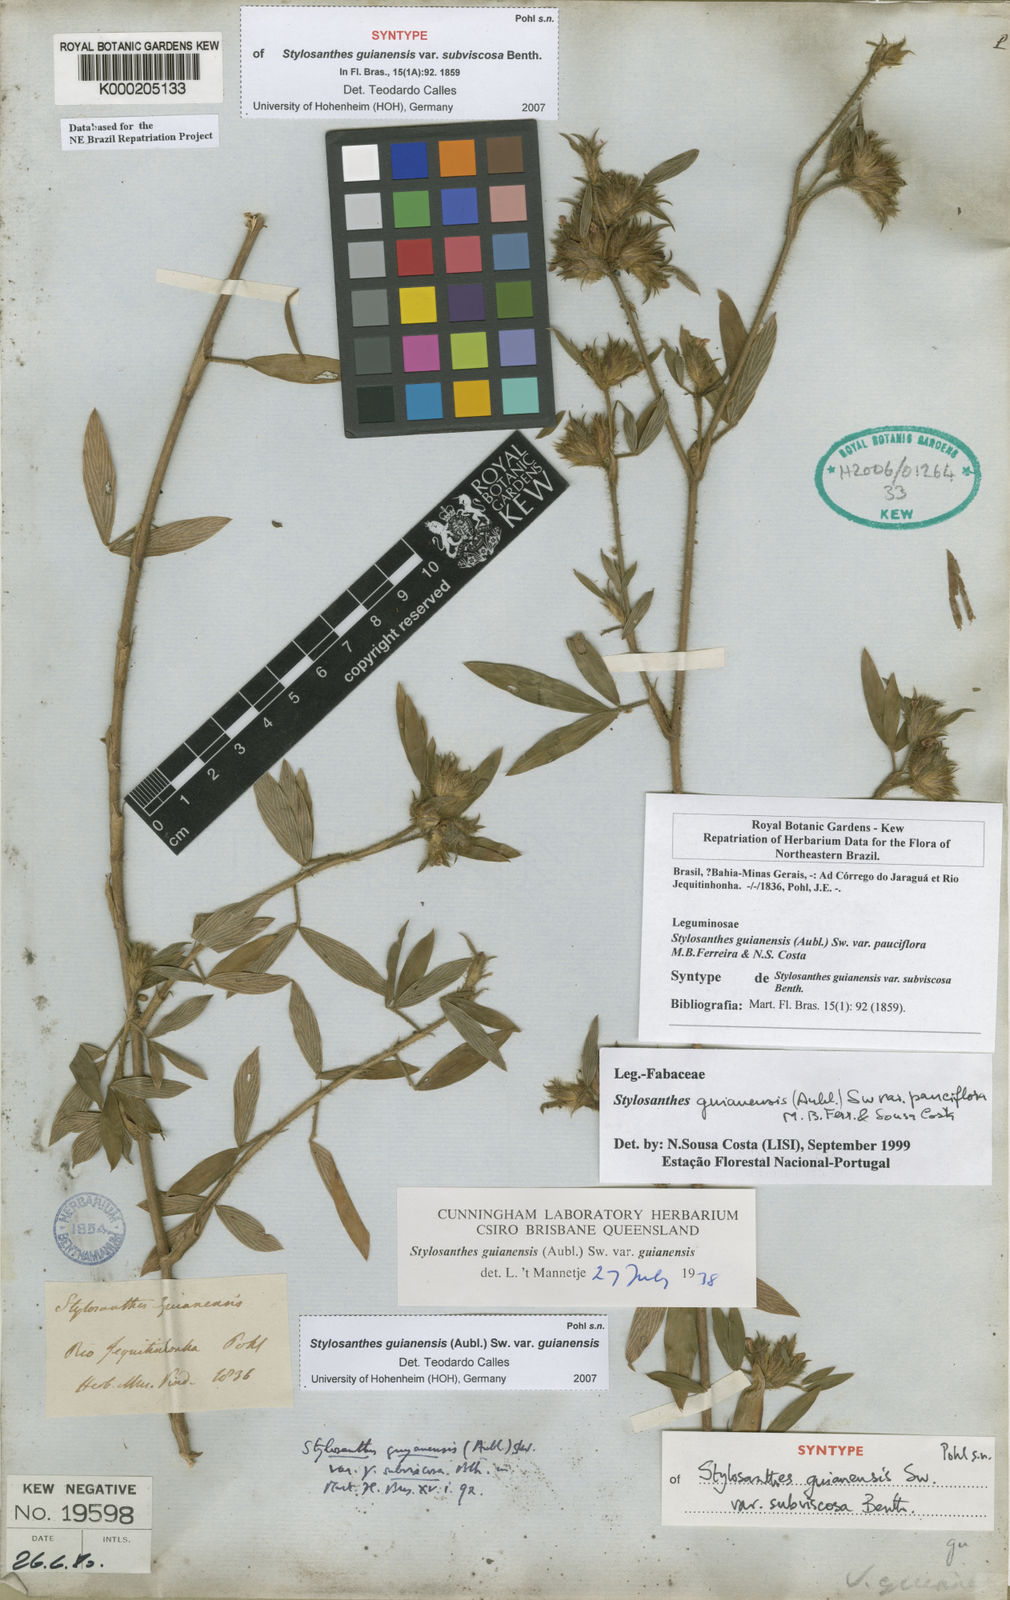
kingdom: Plantae
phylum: Tracheophyta
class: Magnoliopsida
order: Fabales
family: Fabaceae
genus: Stylosanthes
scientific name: Stylosanthes guianensis
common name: Pencil flower
